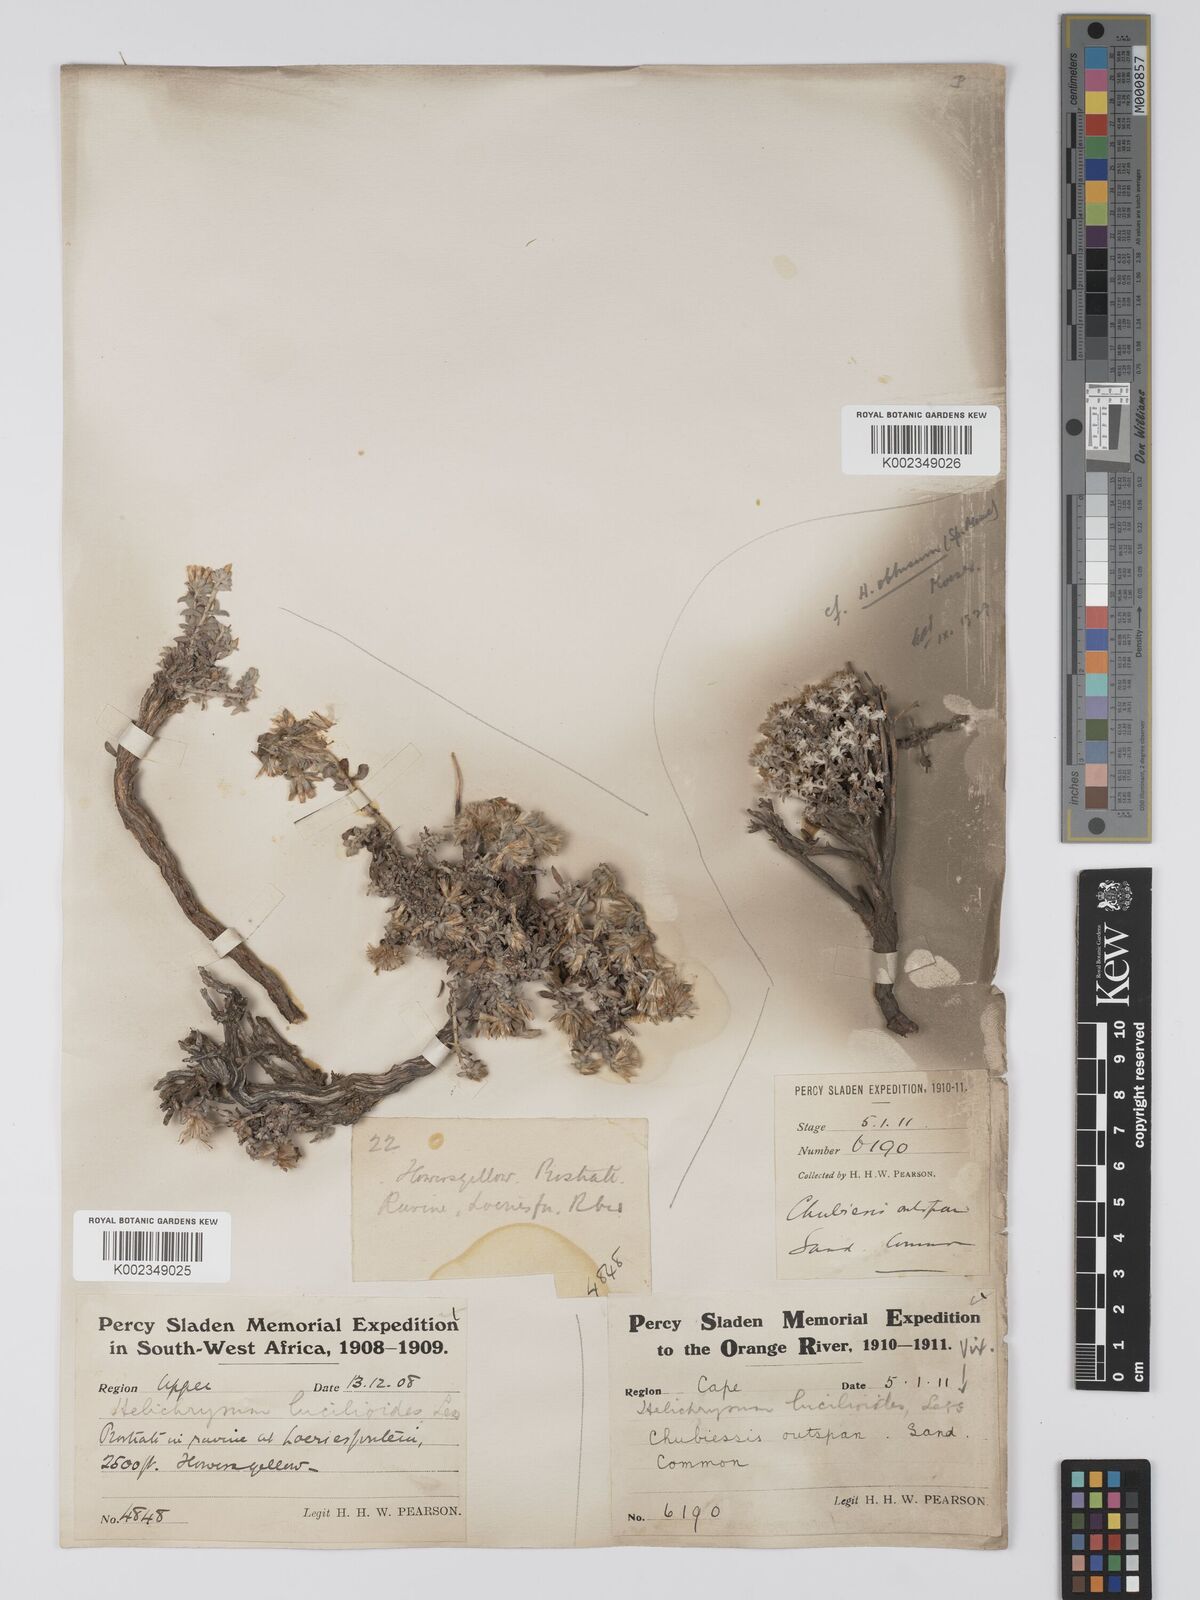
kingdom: Plantae
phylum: Tracheophyta
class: Magnoliopsida
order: Asterales
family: Asteraceae
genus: Helichrysum
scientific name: Helichrysum lucilioides
